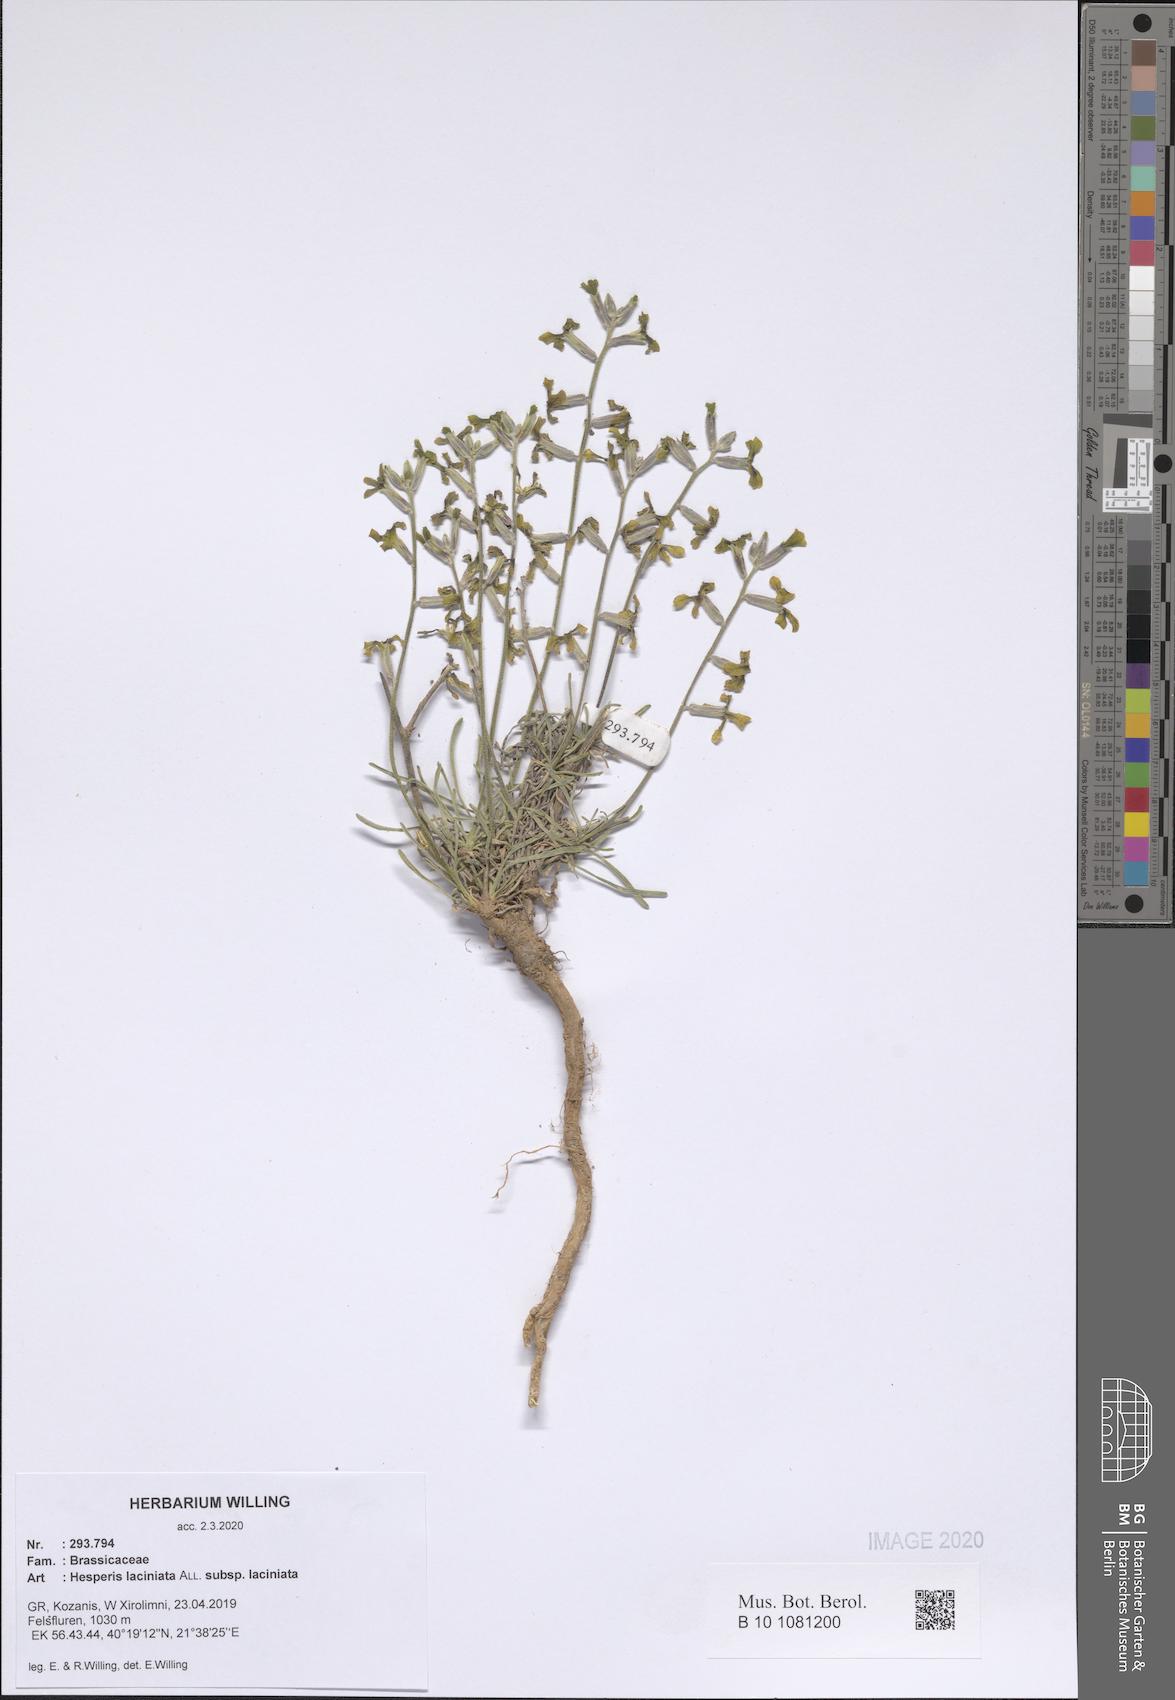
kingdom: Plantae
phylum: Tracheophyta
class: Magnoliopsida
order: Brassicales
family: Brassicaceae
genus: Hesperis
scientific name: Hesperis laciniata
